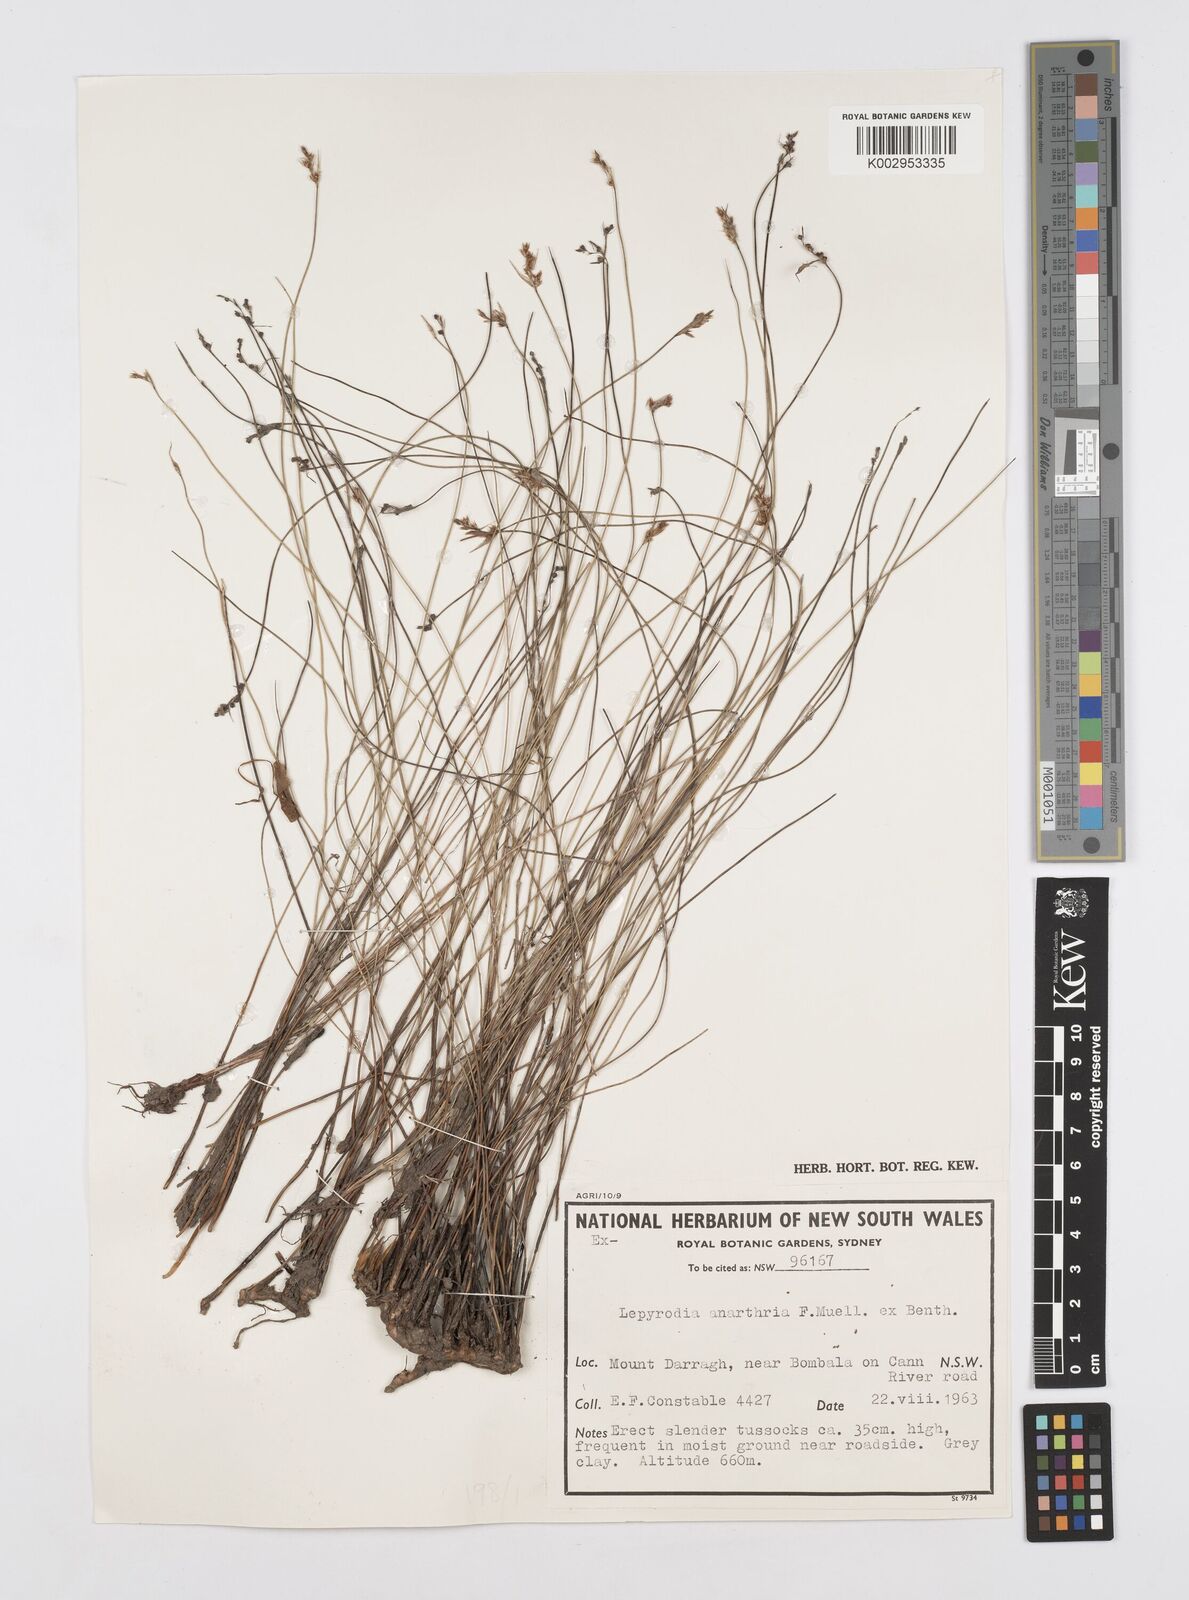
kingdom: Plantae
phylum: Tracheophyta
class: Liliopsida
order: Poales
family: Restionaceae
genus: Lepyrodia
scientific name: Lepyrodia anarthria
